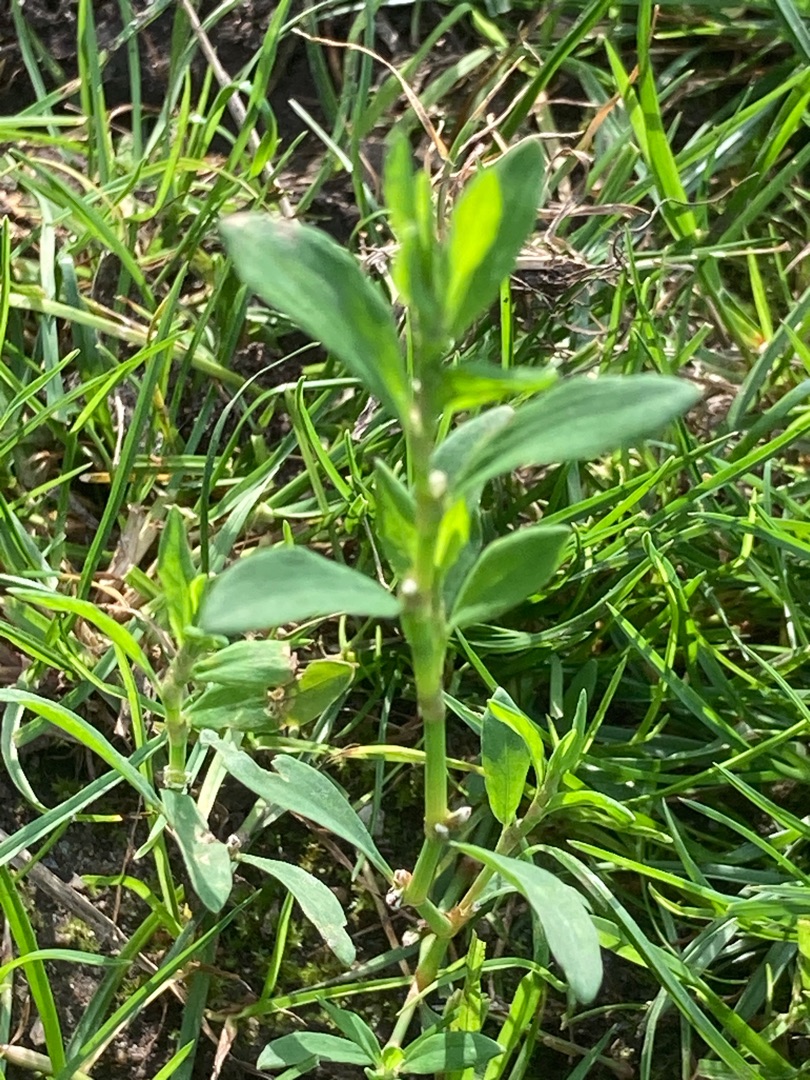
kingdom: Plantae
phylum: Tracheophyta
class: Magnoliopsida
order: Caryophyllales
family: Polygonaceae
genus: Polygonum
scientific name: Polygonum aviculare
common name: Vej-pileurt
